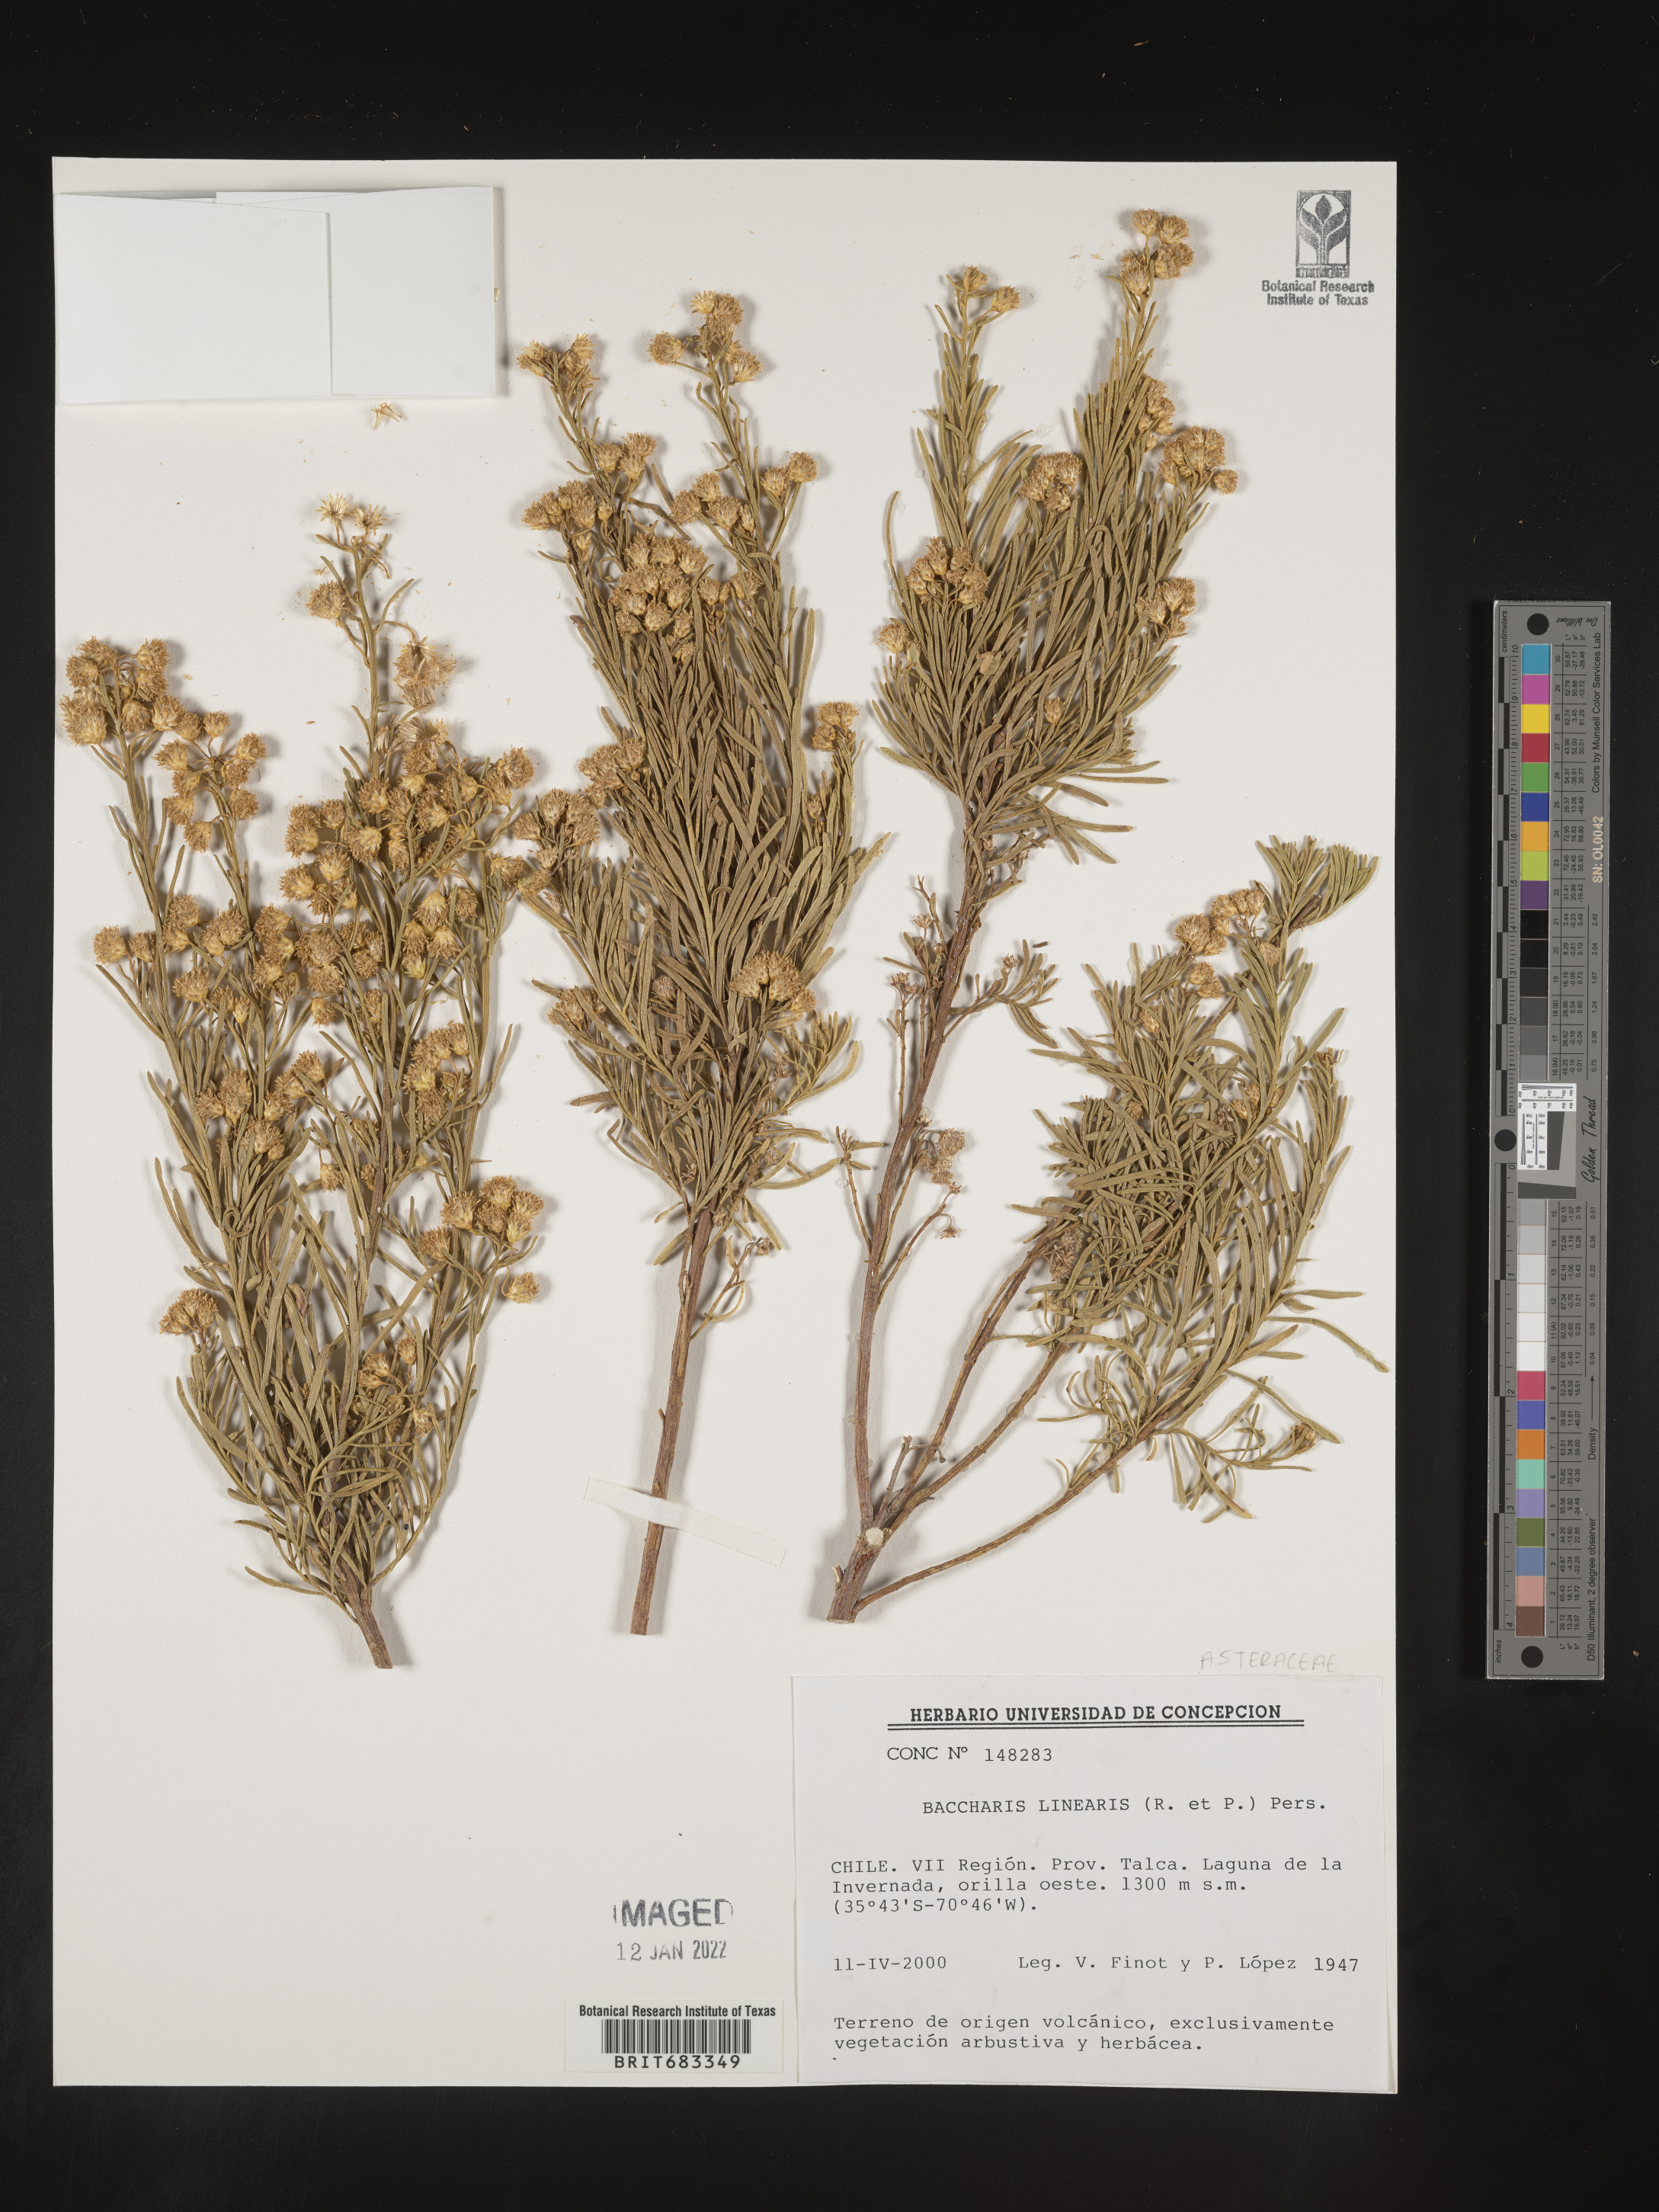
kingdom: Plantae
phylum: Tracheophyta
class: Magnoliopsida
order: Asterales
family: Asteraceae
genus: Baccharis
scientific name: Baccharis
